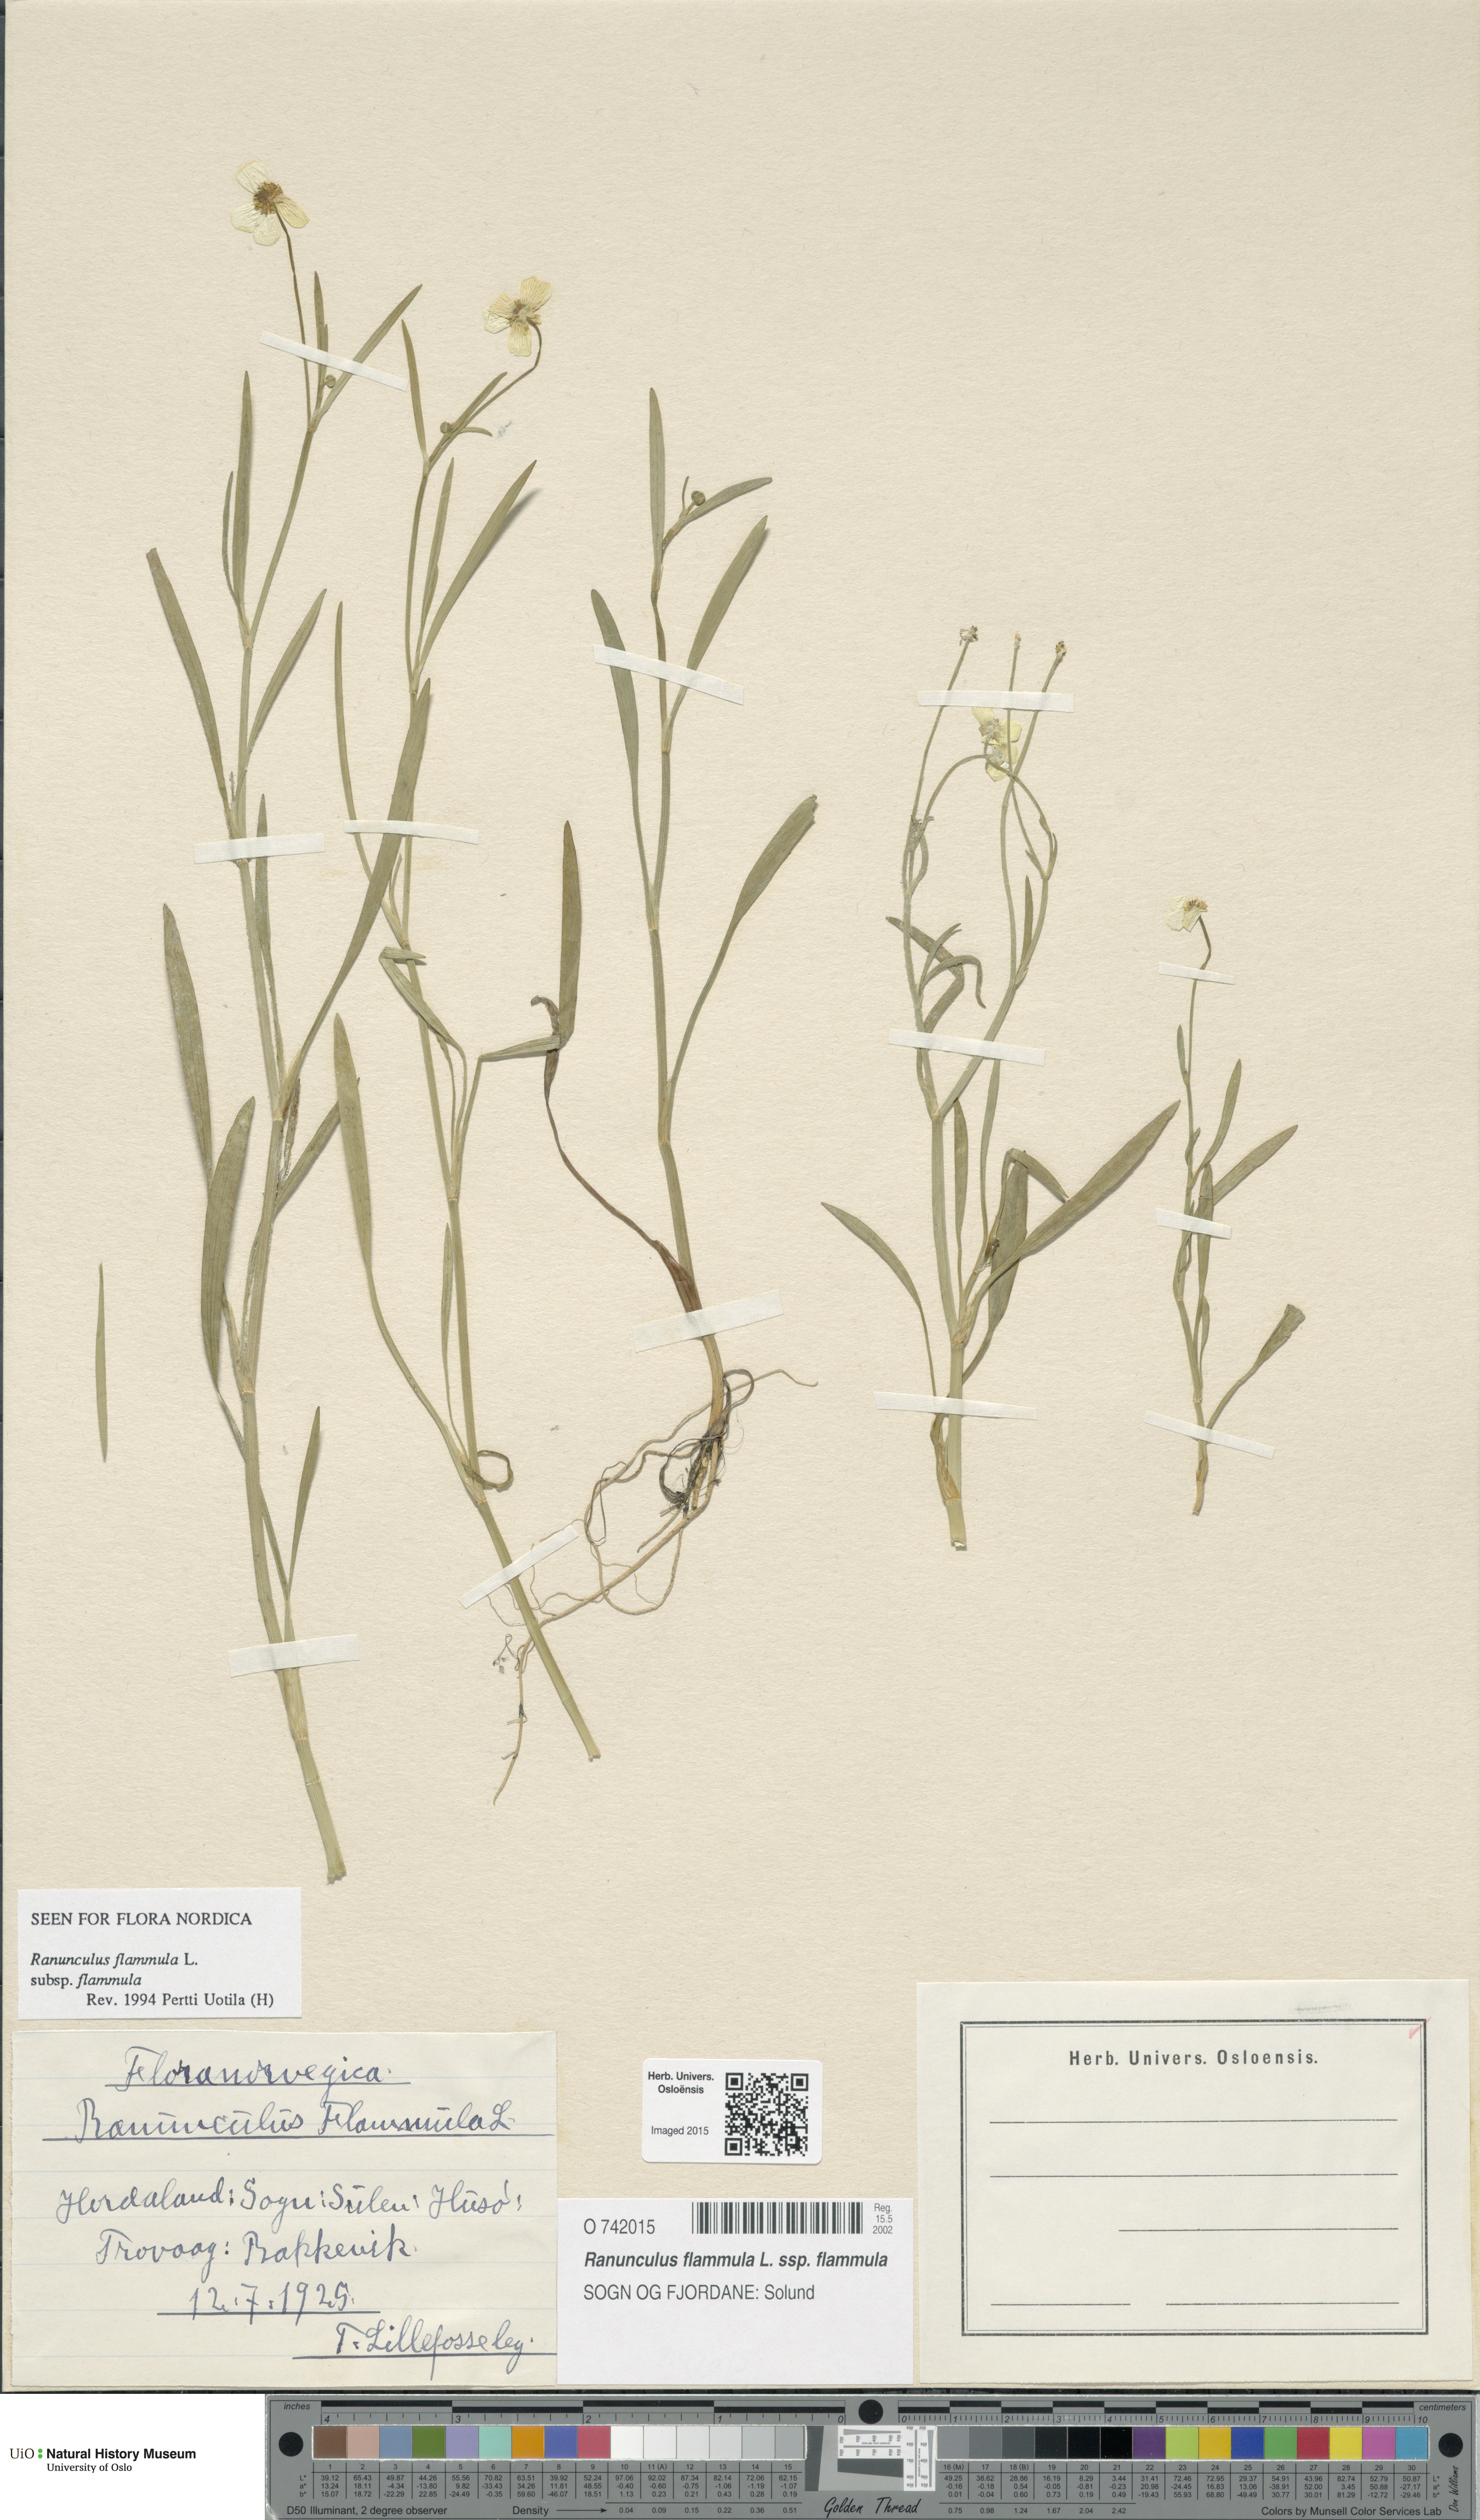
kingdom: Plantae
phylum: Tracheophyta
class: Magnoliopsida
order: Ranunculales
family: Ranunculaceae
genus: Ranunculus
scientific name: Ranunculus flammula
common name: Lesser spearwort
